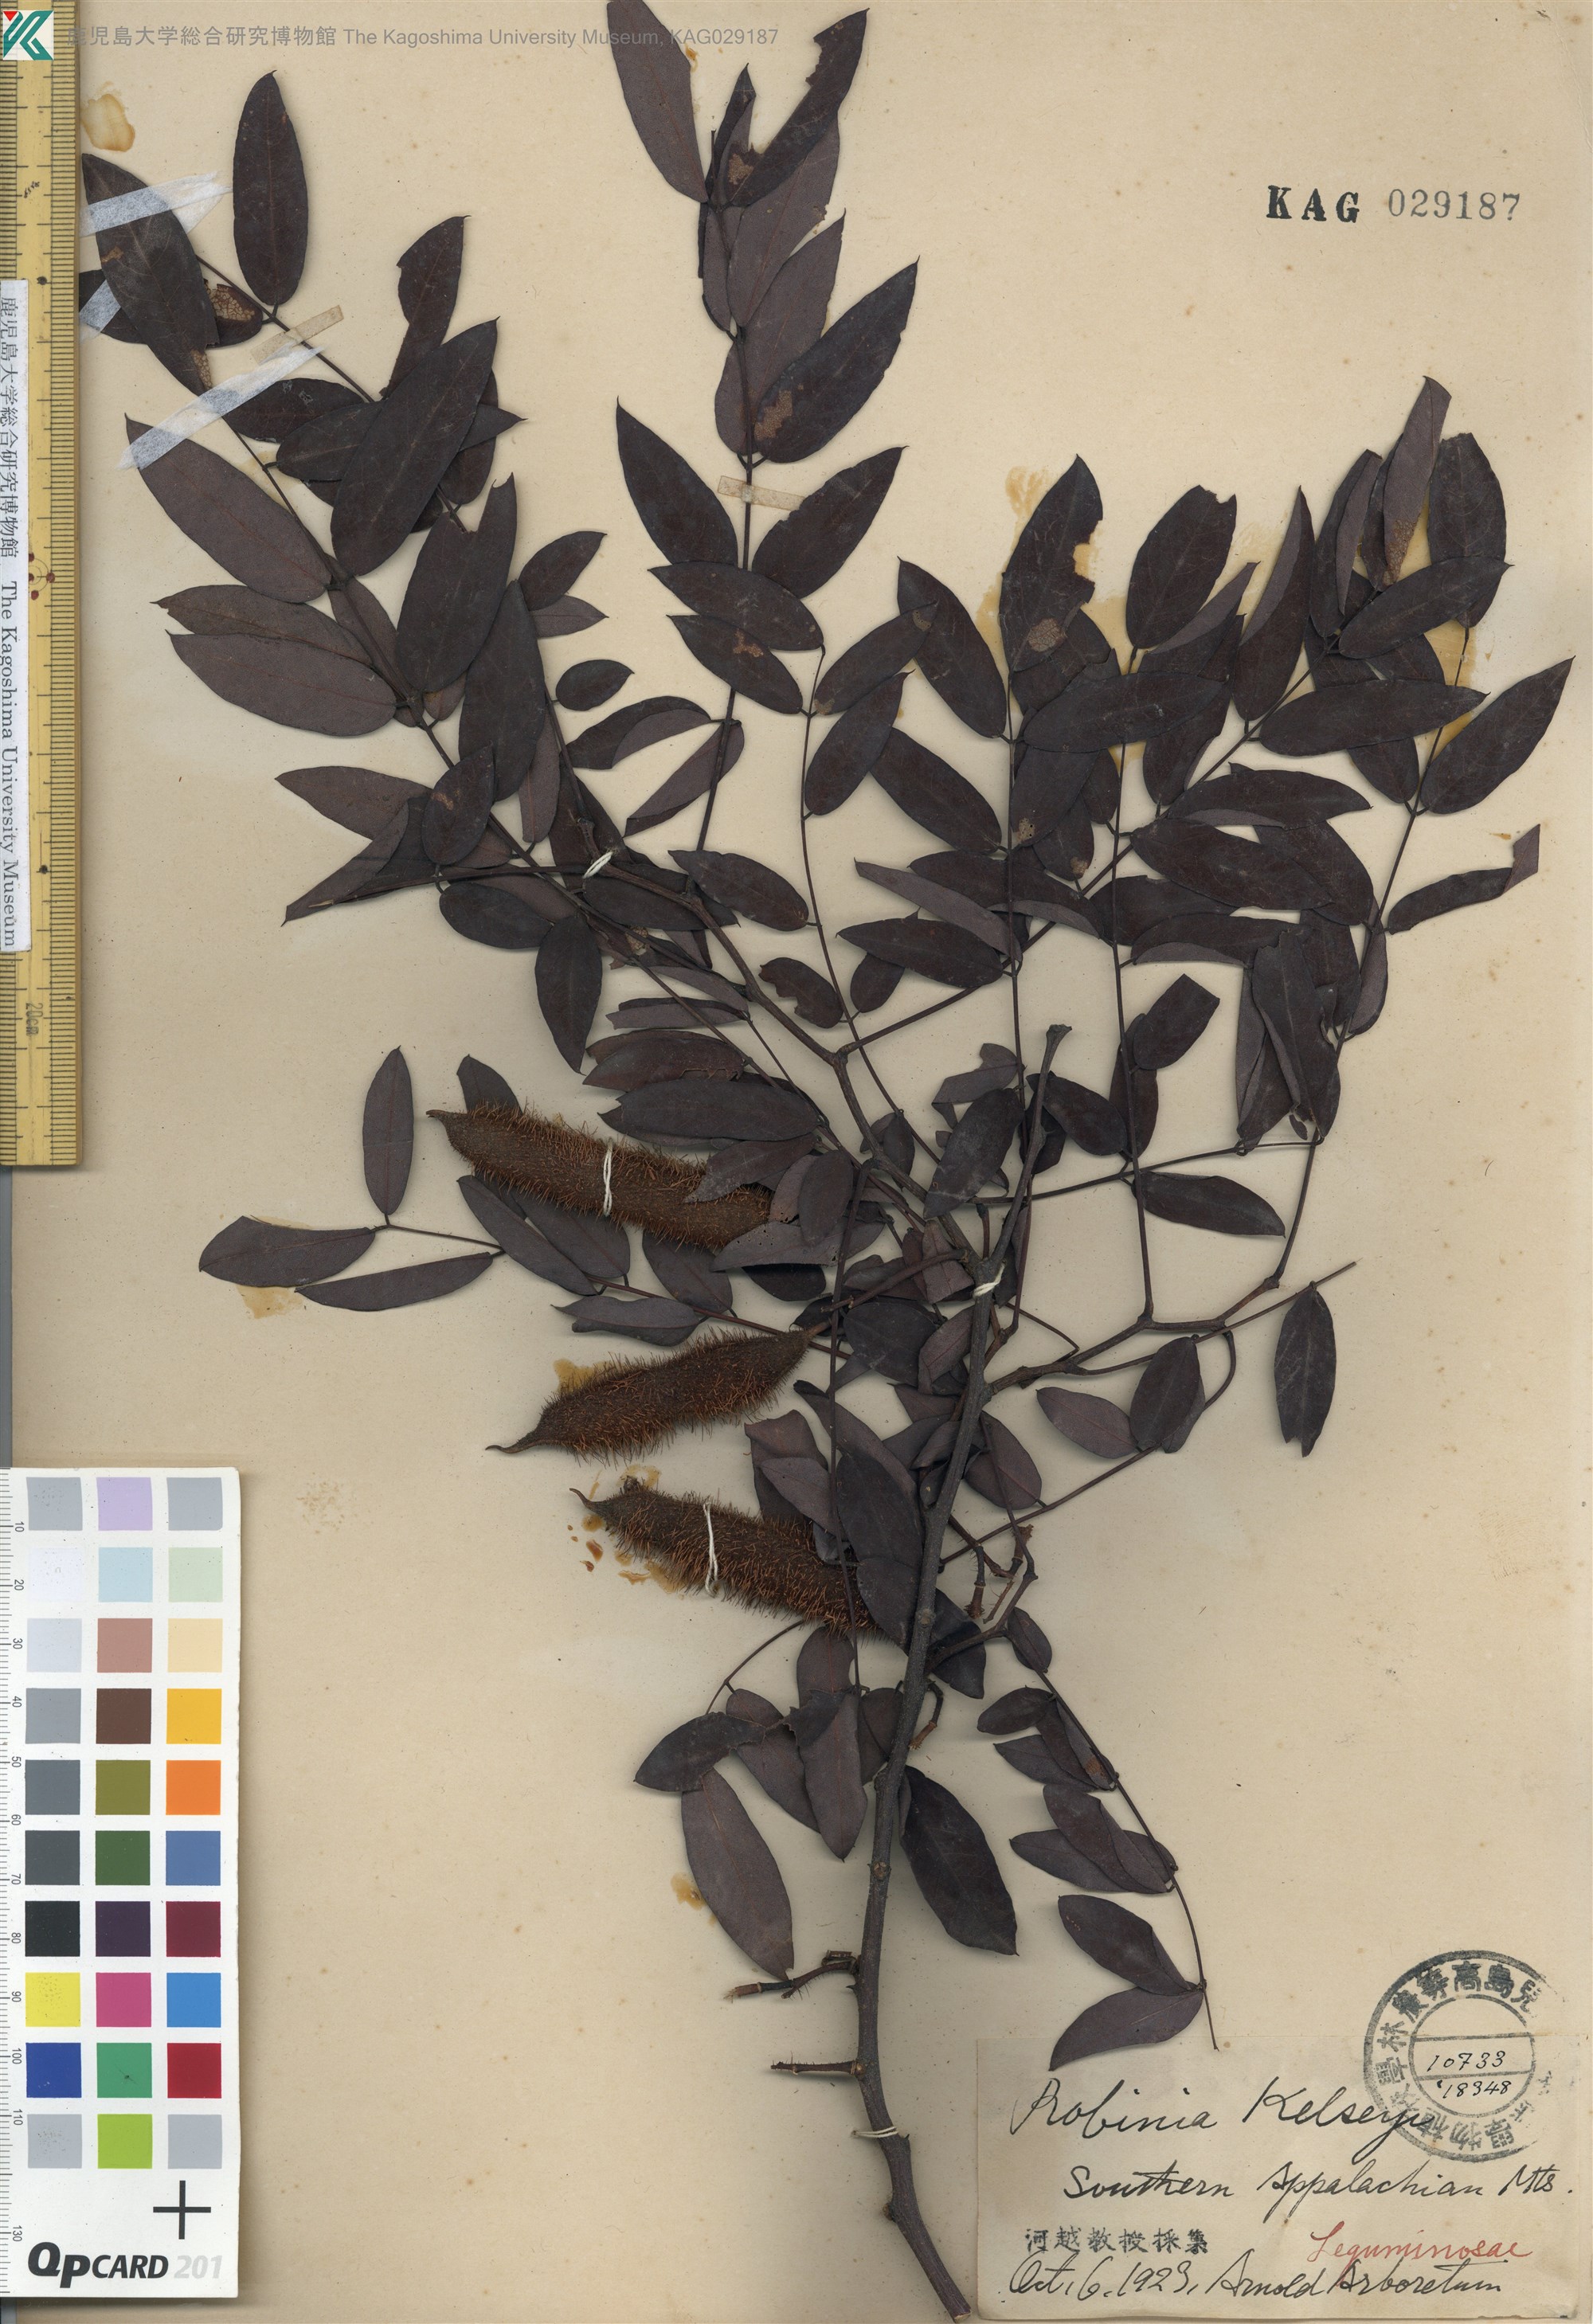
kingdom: Plantae
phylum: Tracheophyta
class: Magnoliopsida
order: Fabales
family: Fabaceae
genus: Robinia
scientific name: Robinia hispida
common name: Bristly locust
